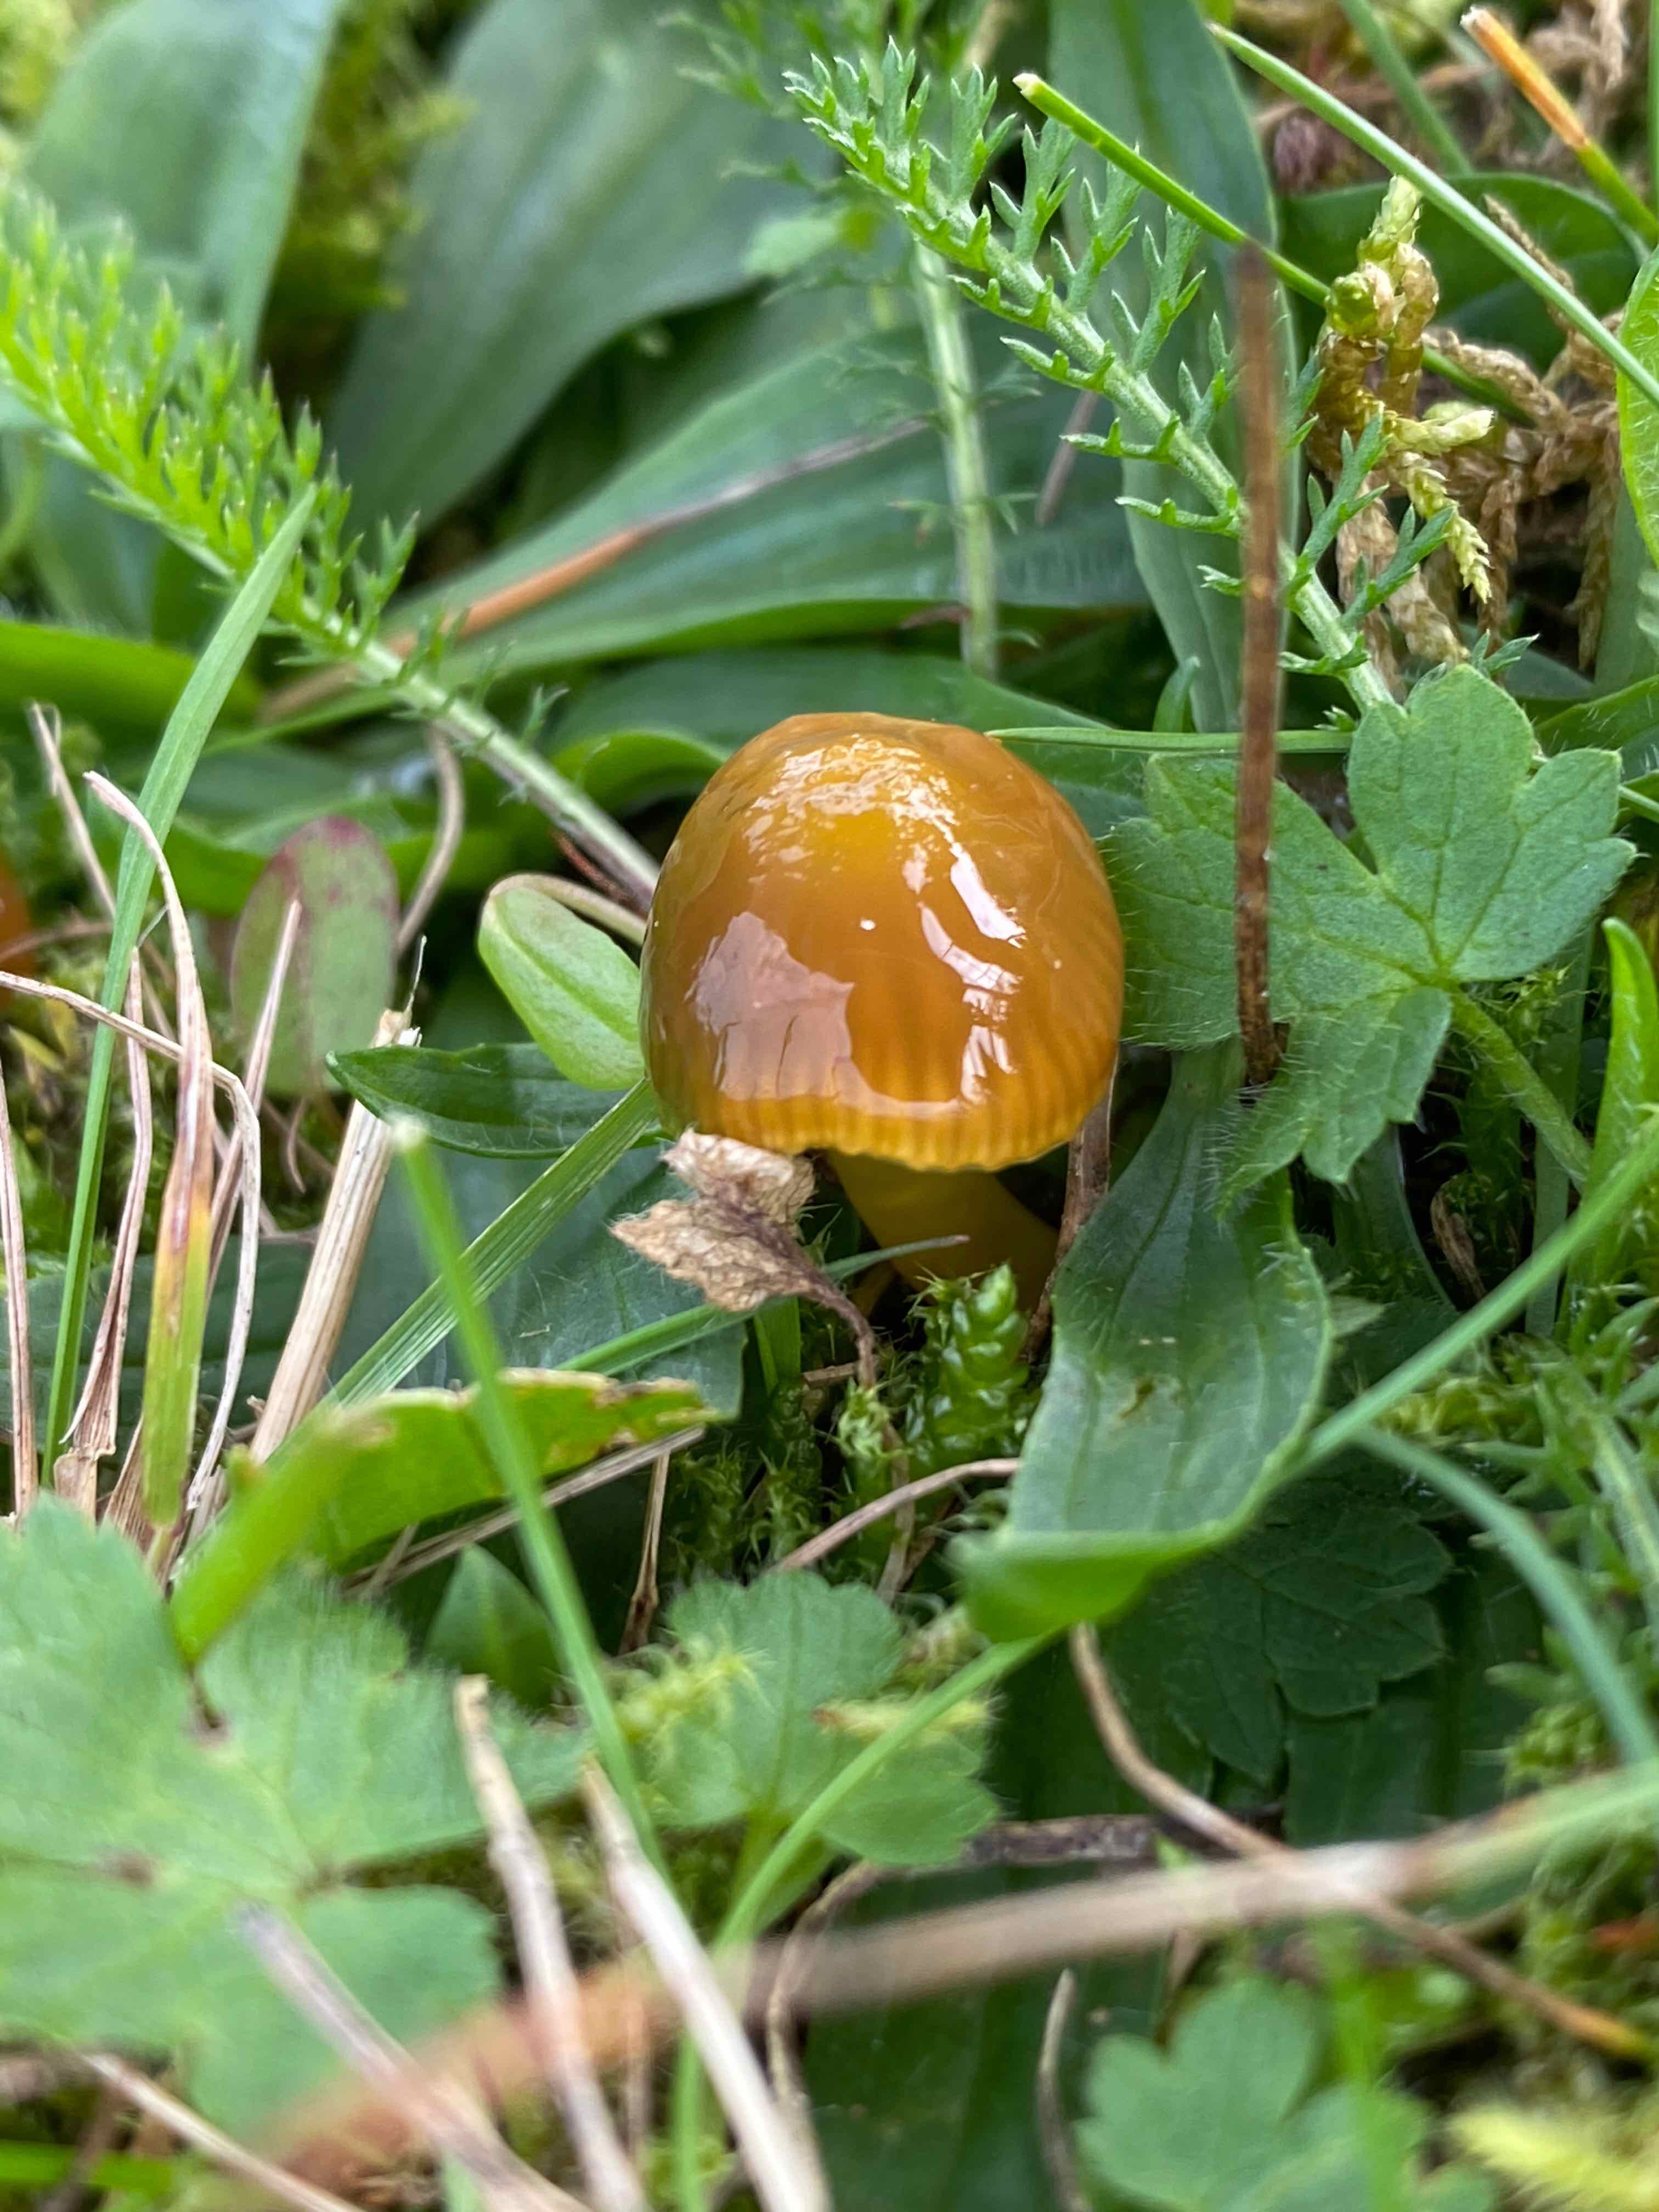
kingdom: Fungi
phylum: Basidiomycota
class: Agaricomycetes
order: Agaricales
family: Hygrophoraceae
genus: Gliophorus
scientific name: Gliophorus psittacinus
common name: papegøje-vokshat
